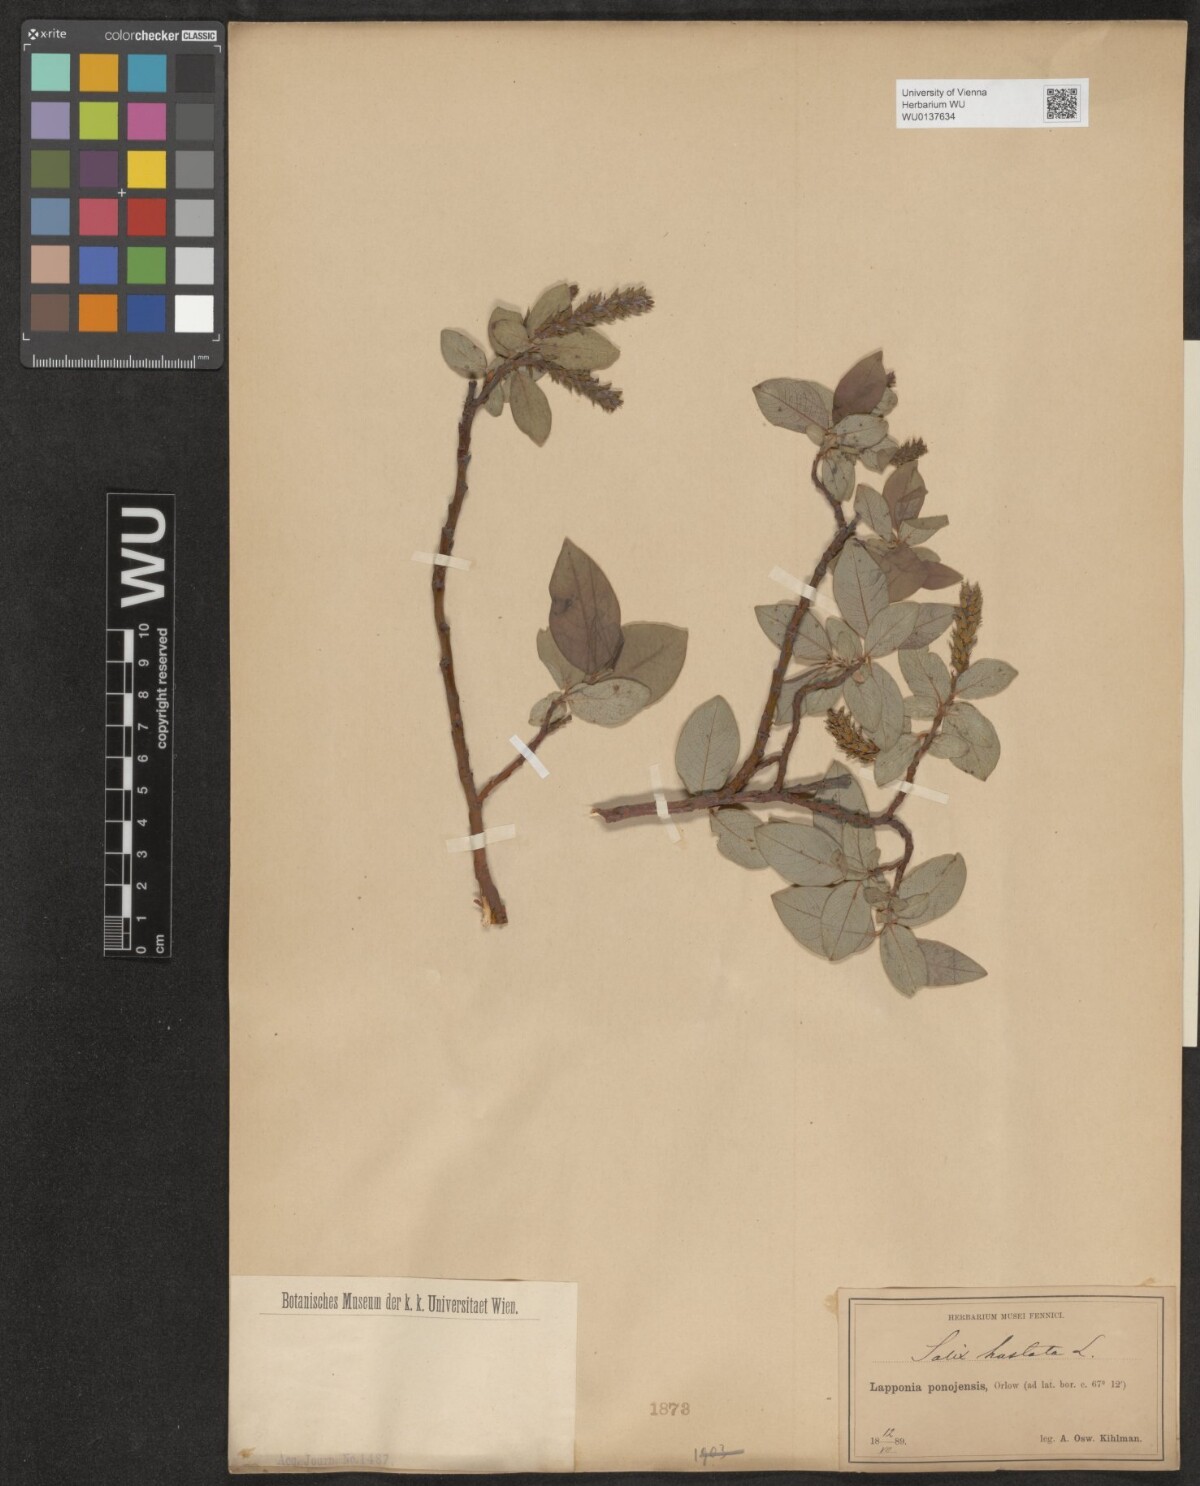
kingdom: Plantae
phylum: Tracheophyta
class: Magnoliopsida
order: Malpighiales
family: Salicaceae
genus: Salix
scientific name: Salix hastata
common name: Halberd willow
